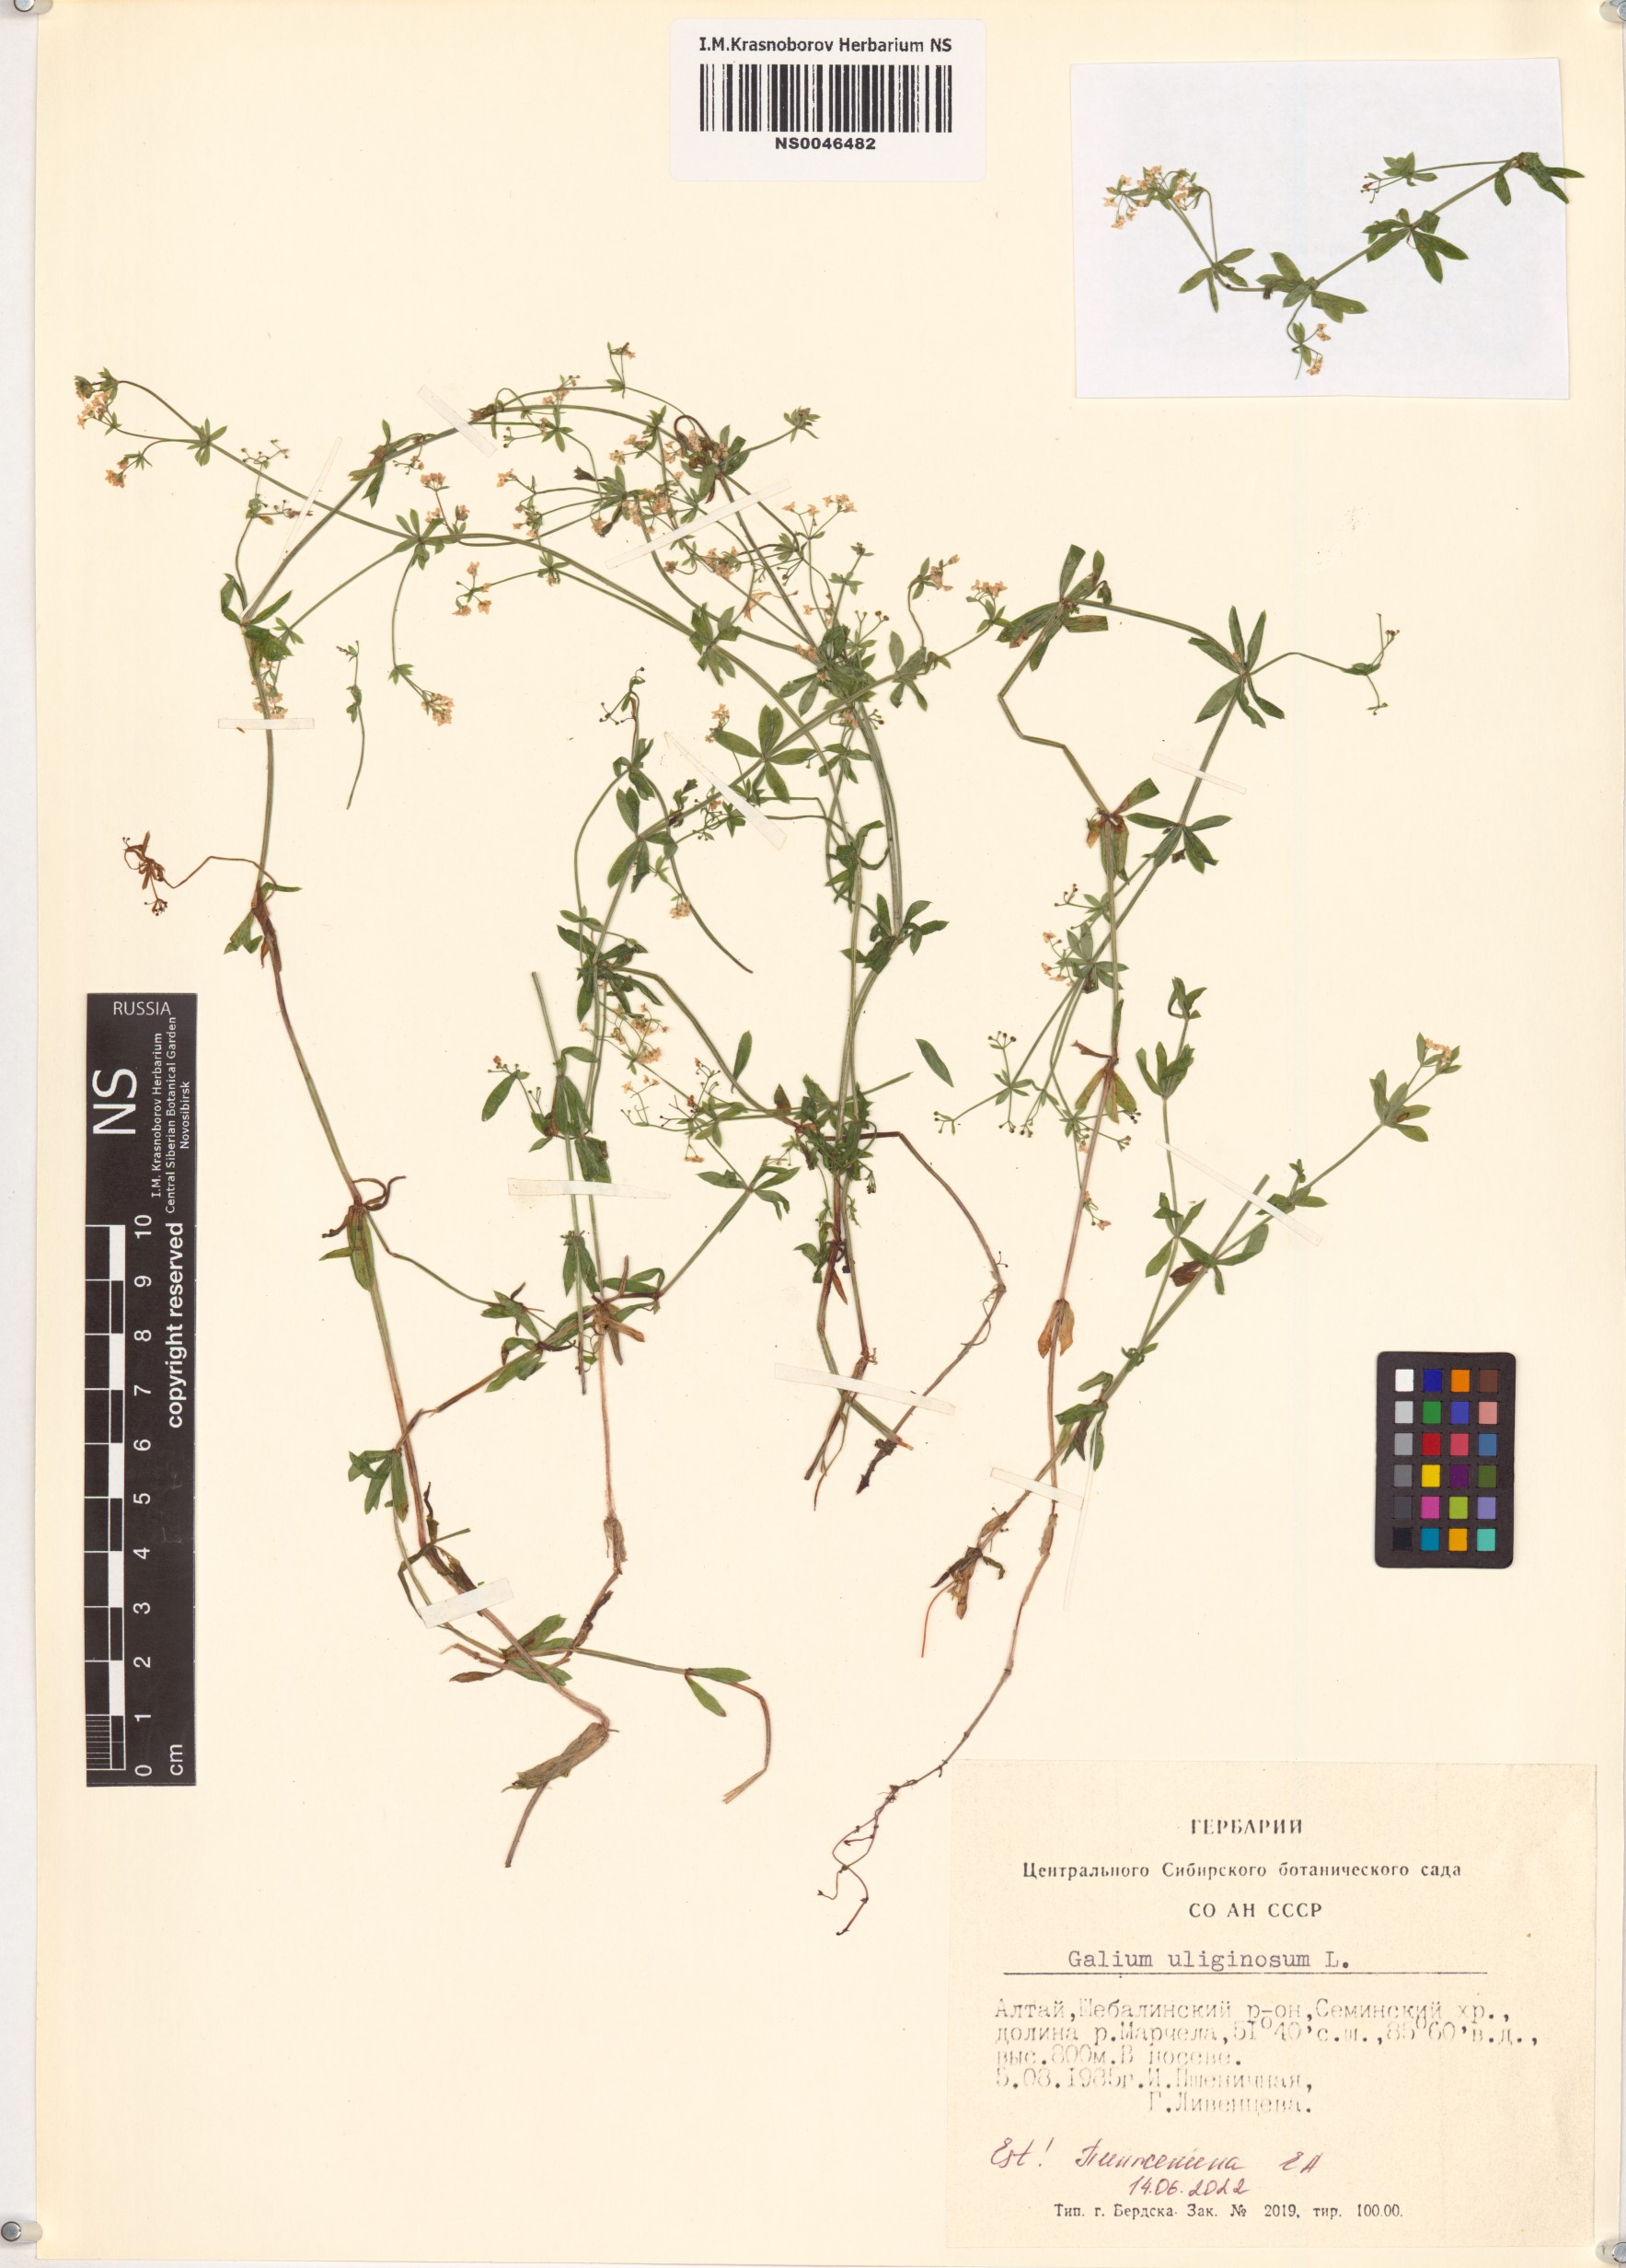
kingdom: Plantae
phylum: Tracheophyta
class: Magnoliopsida
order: Gentianales
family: Rubiaceae
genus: Galium
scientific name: Galium uliginosum
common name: Fen bedstraw
